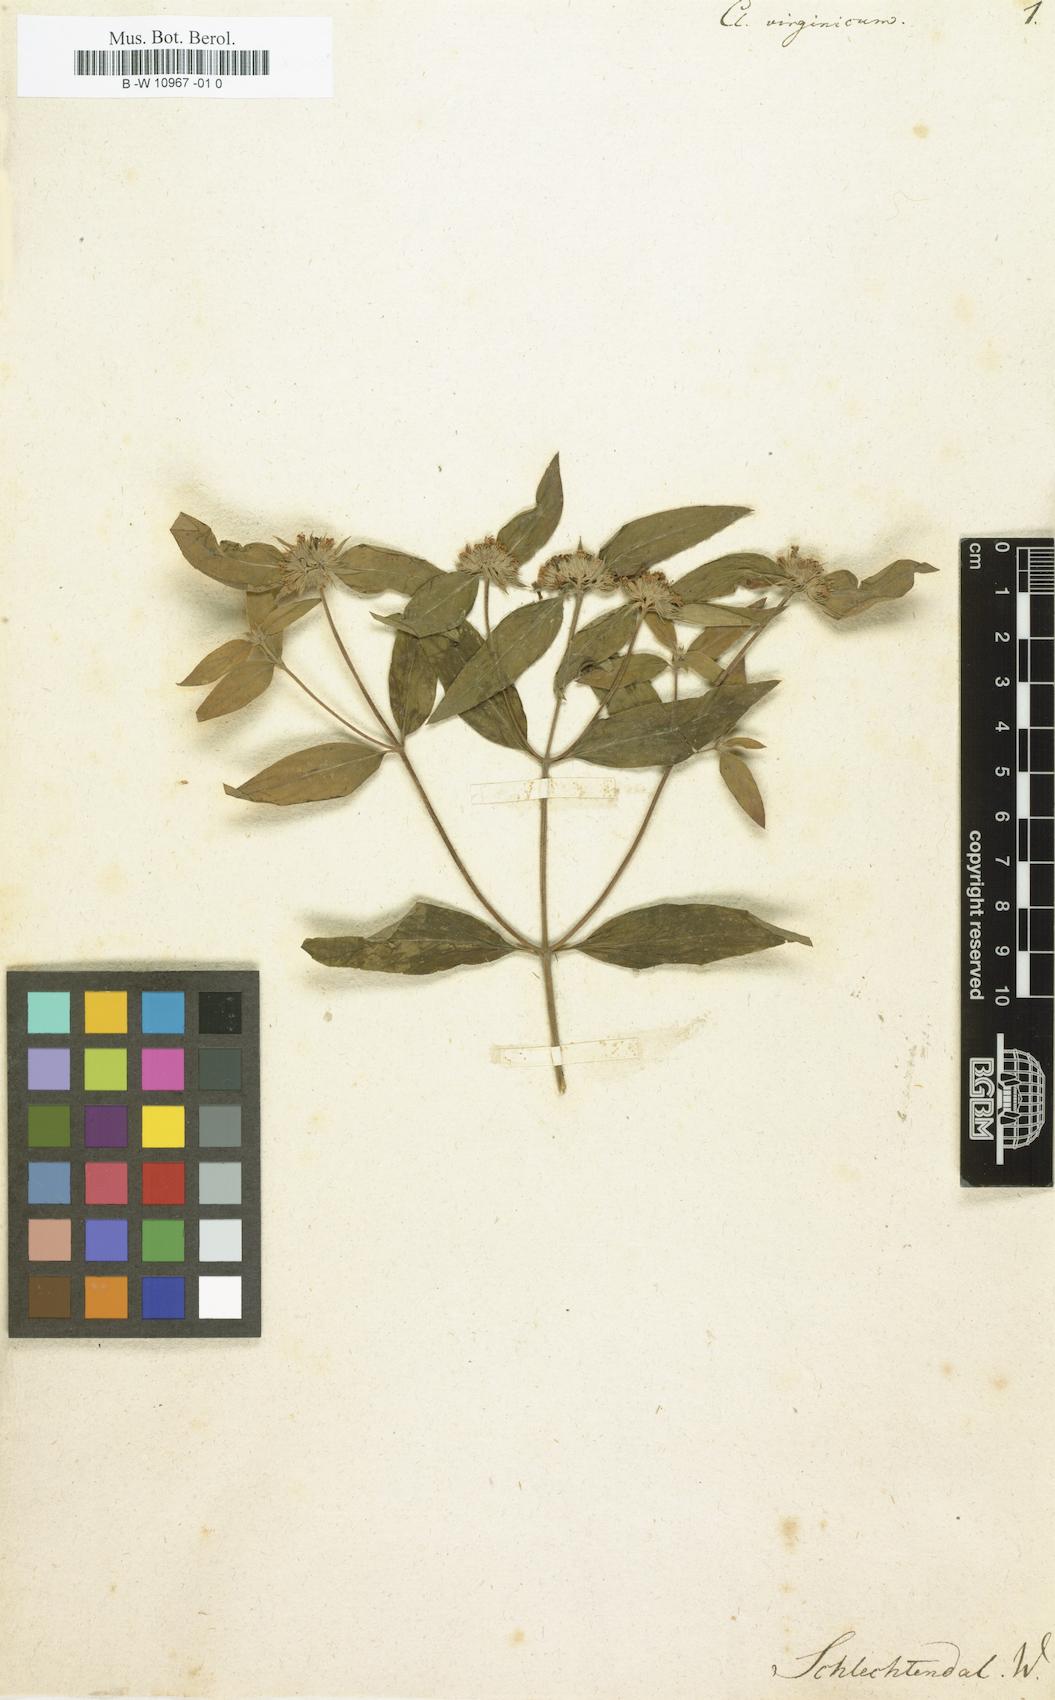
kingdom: Plantae
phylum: Tracheophyta
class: Magnoliopsida
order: Lamiales
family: Lamiaceae
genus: Clinopodium
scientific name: Clinopodium
